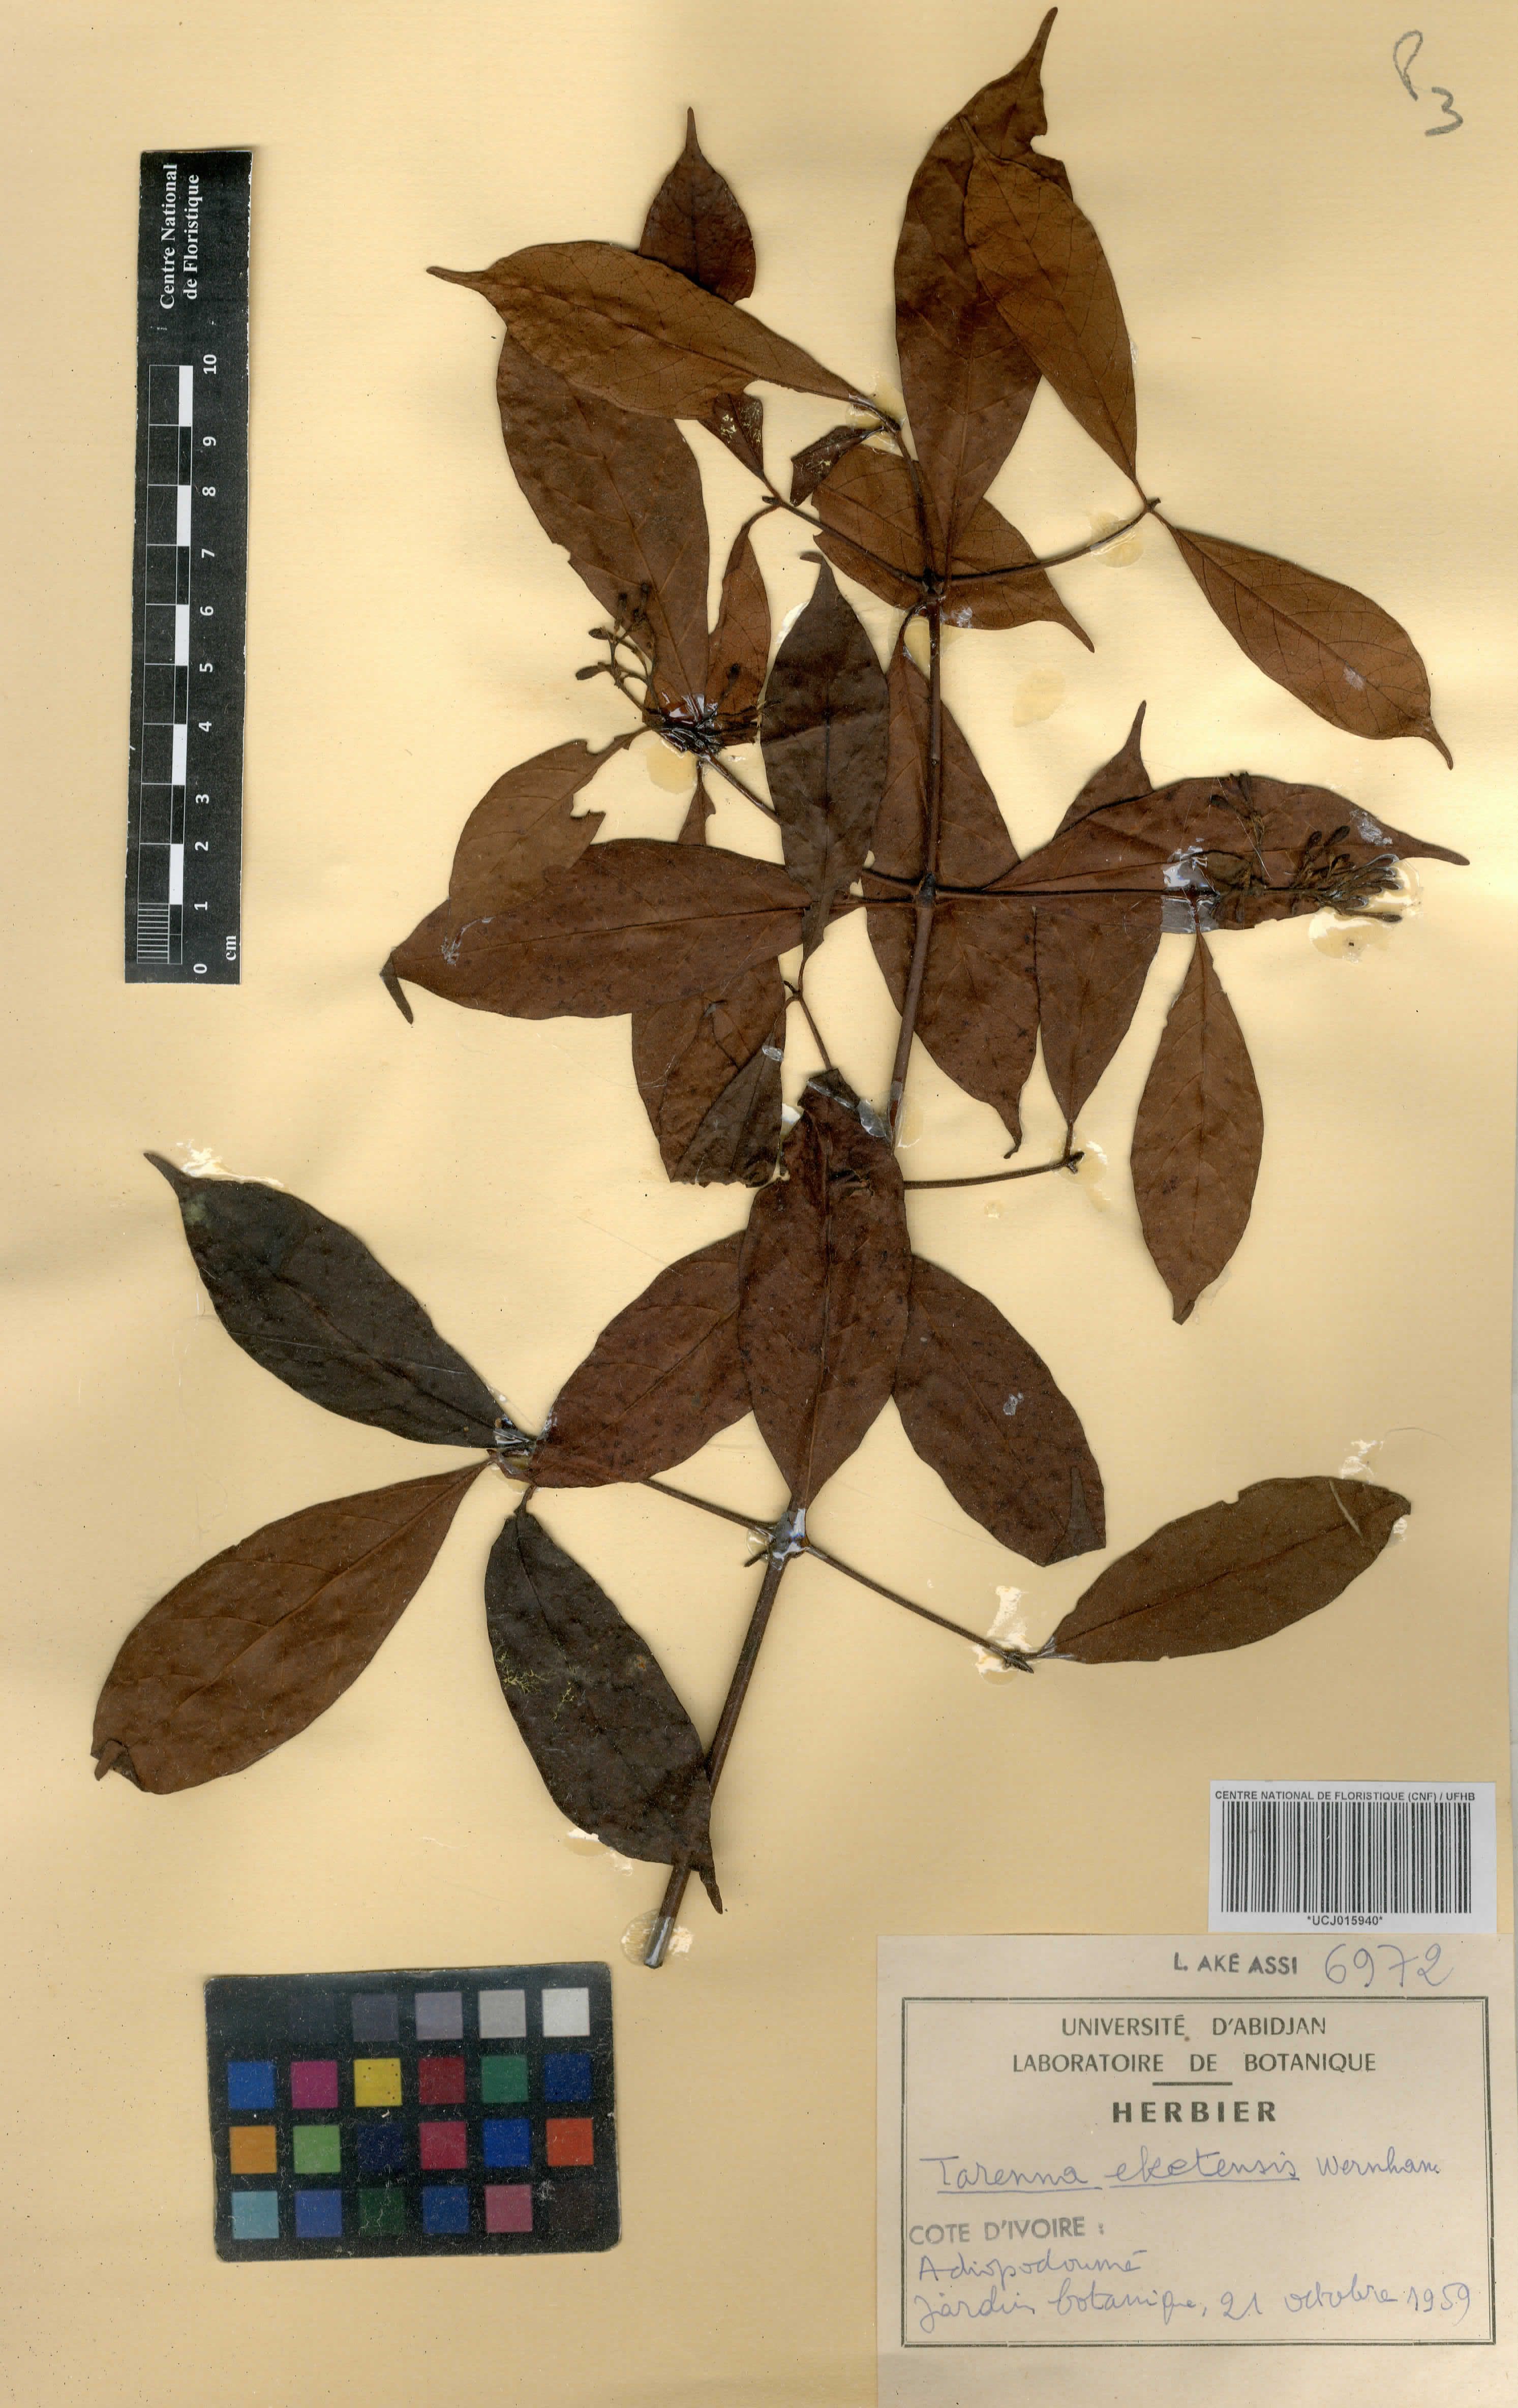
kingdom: Plantae
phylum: Tracheophyta
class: Magnoliopsida
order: Gentianales
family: Rubiaceae
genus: Tarenna
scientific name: Tarenna eketensis
